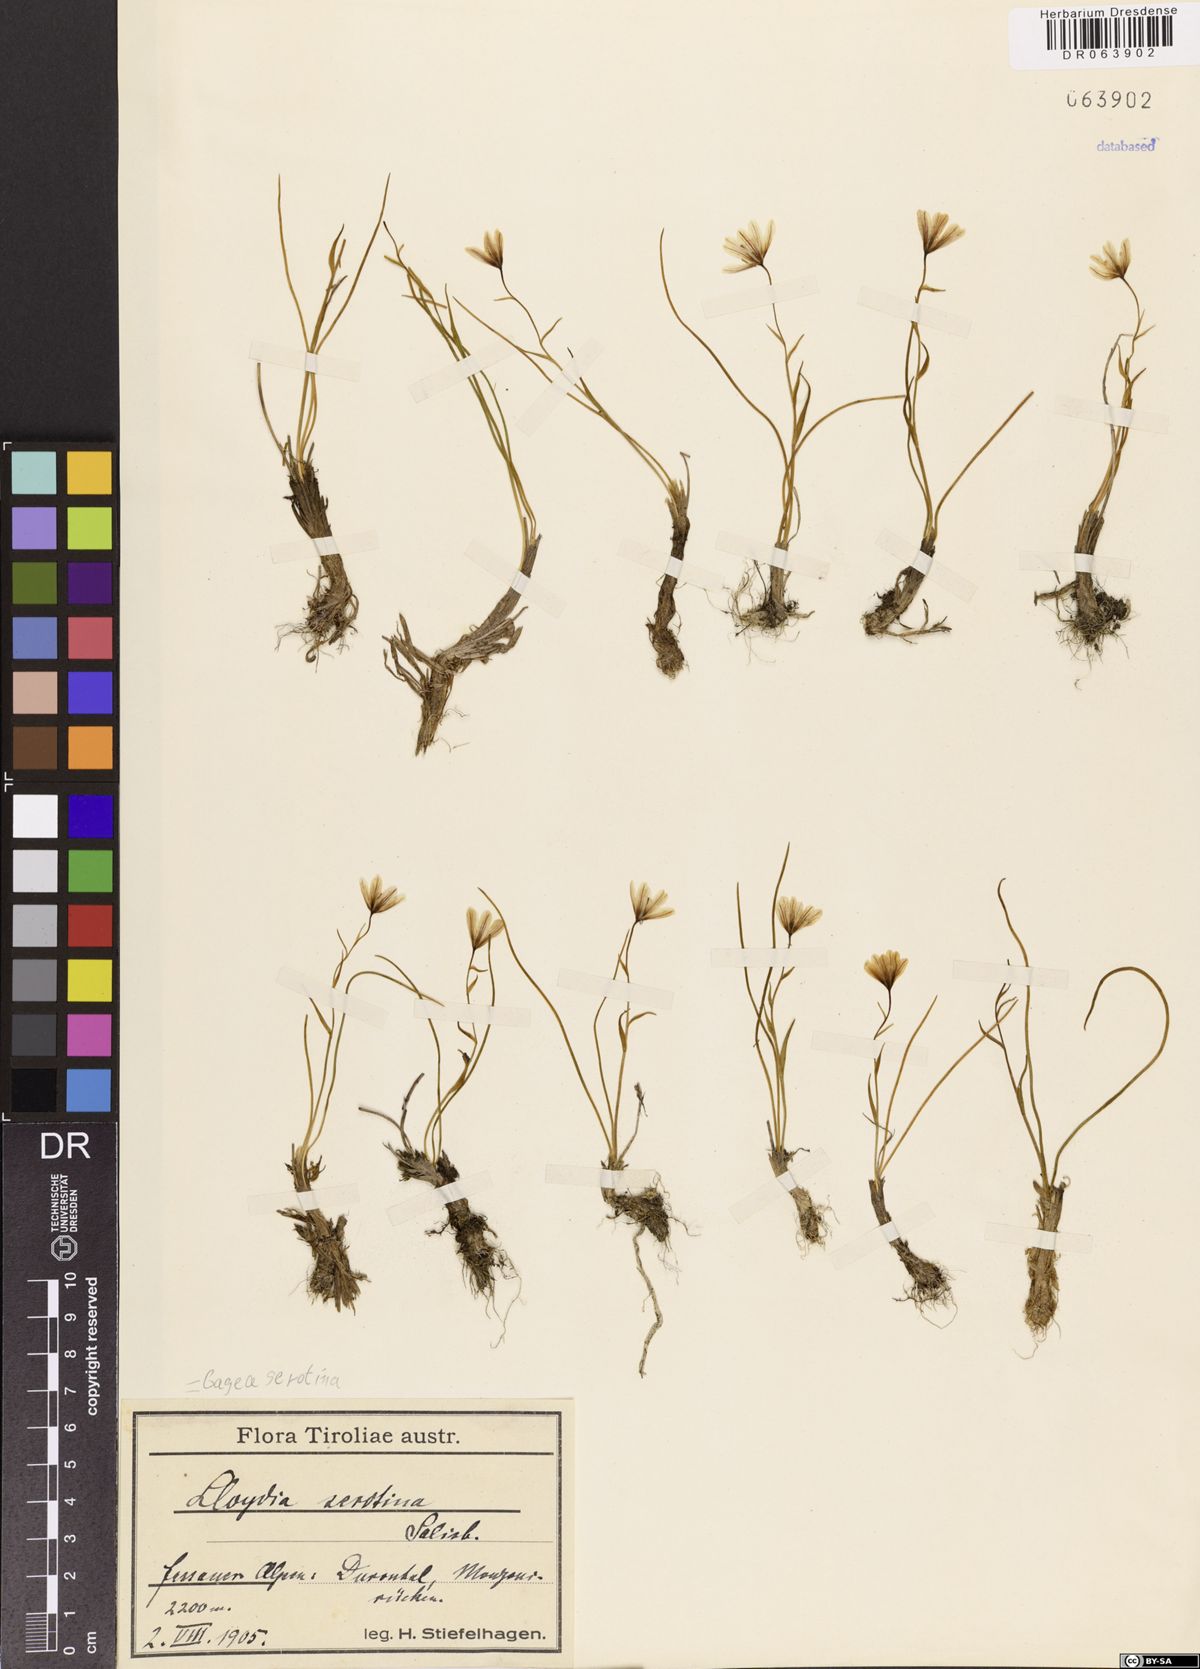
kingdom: Plantae
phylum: Tracheophyta
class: Liliopsida
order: Liliales
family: Liliaceae
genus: Gagea
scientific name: Gagea serotina
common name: Snowdon lily
